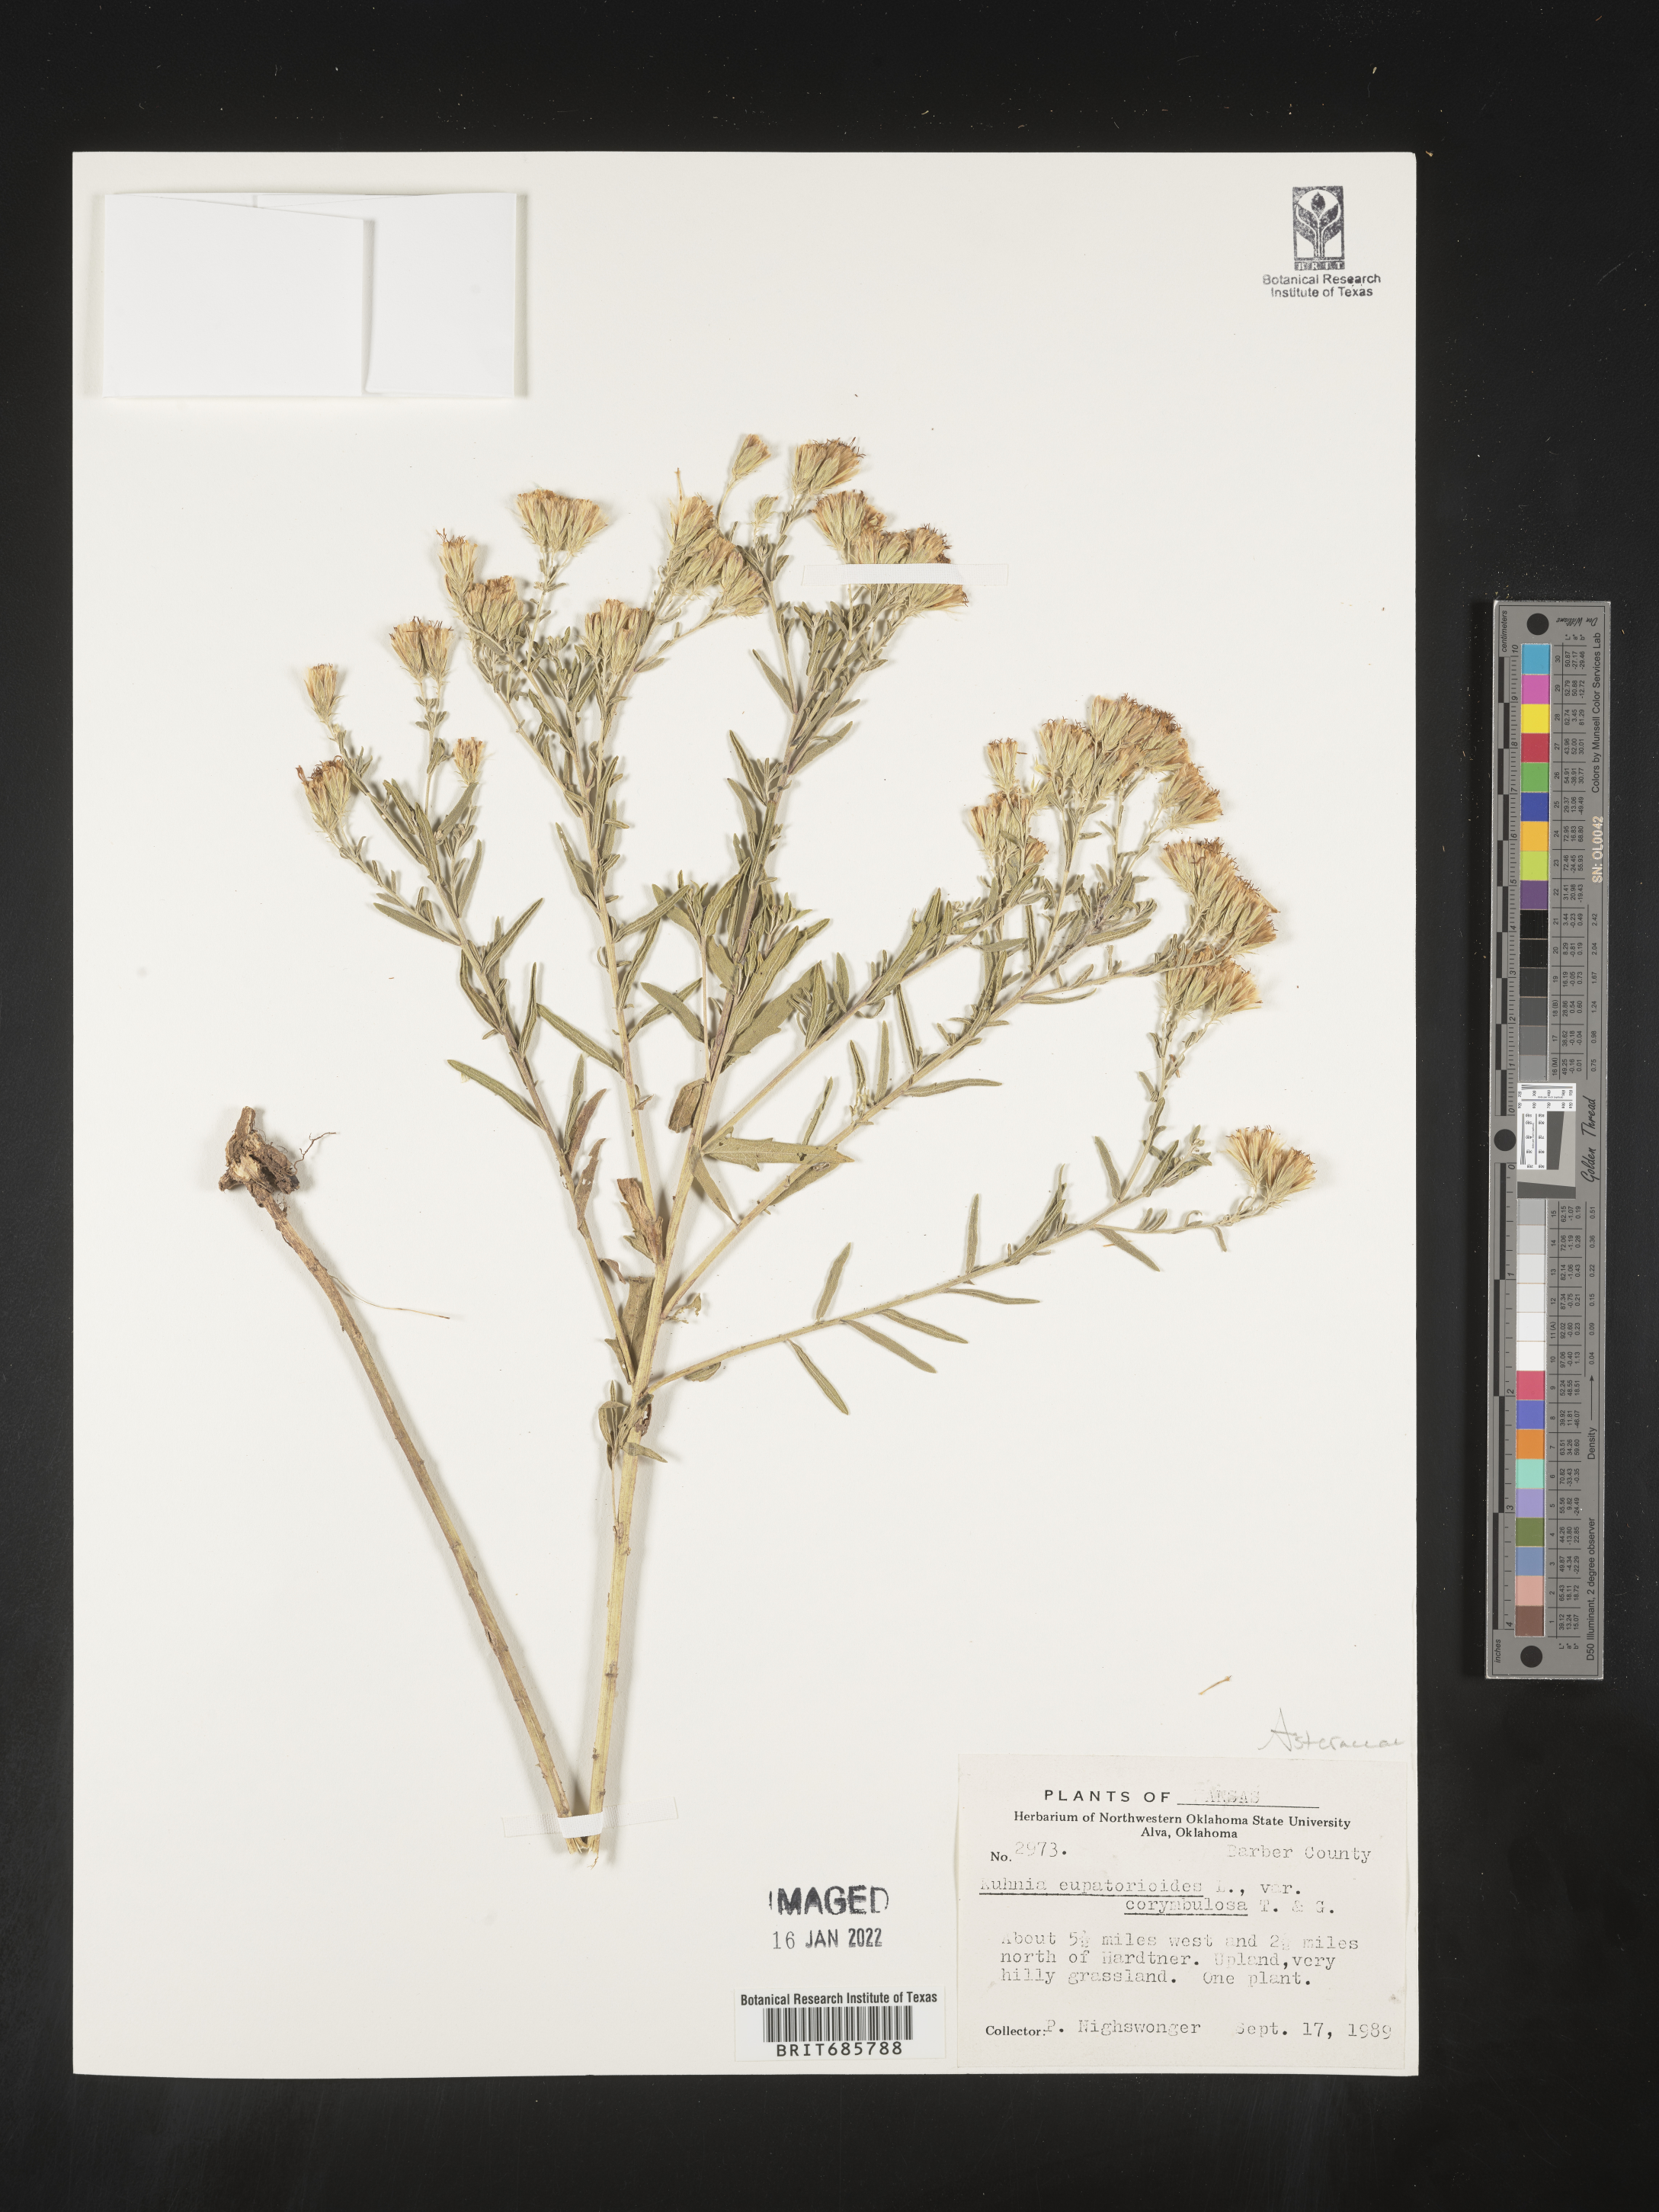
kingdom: Plantae
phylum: Tracheophyta
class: Magnoliopsida
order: Asterales
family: Asteraceae
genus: Brickellia
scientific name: Brickellia eupatorioides
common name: False boneset
